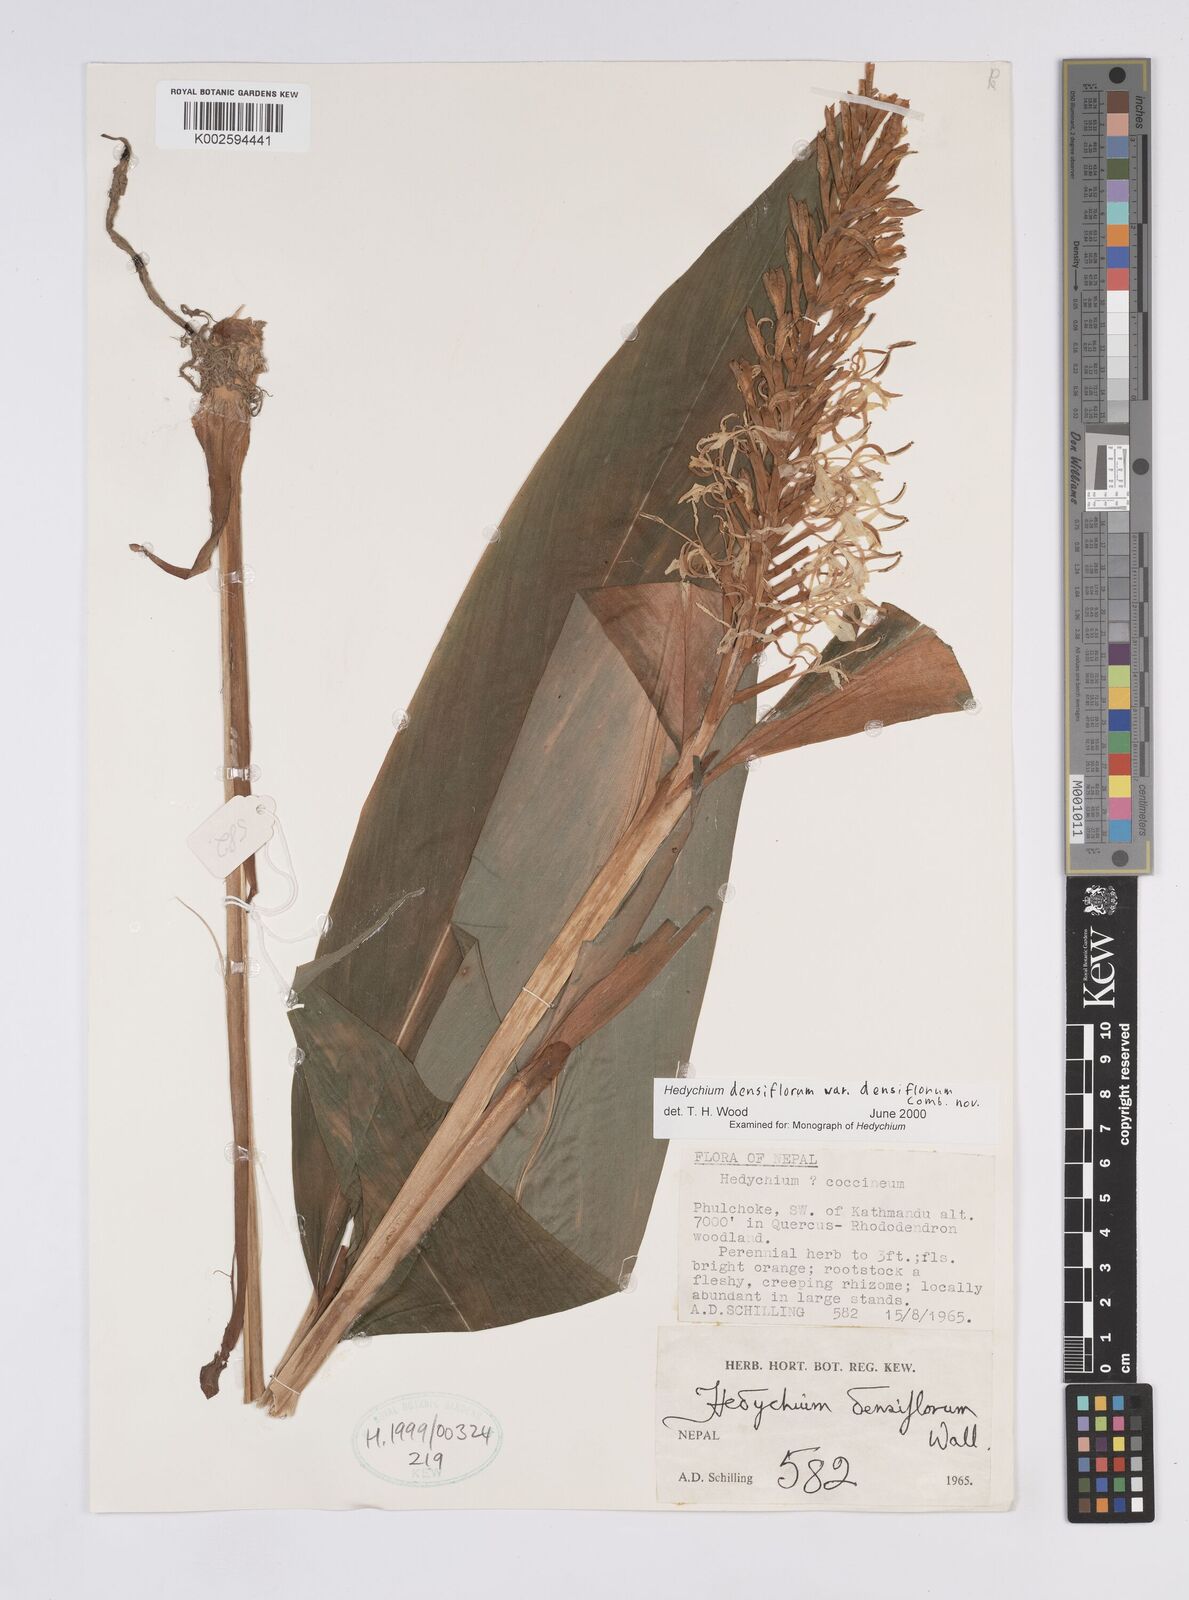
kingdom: Plantae
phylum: Tracheophyta
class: Liliopsida
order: Zingiberales
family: Zingiberaceae
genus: Hedychium
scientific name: Hedychium densiflorum
